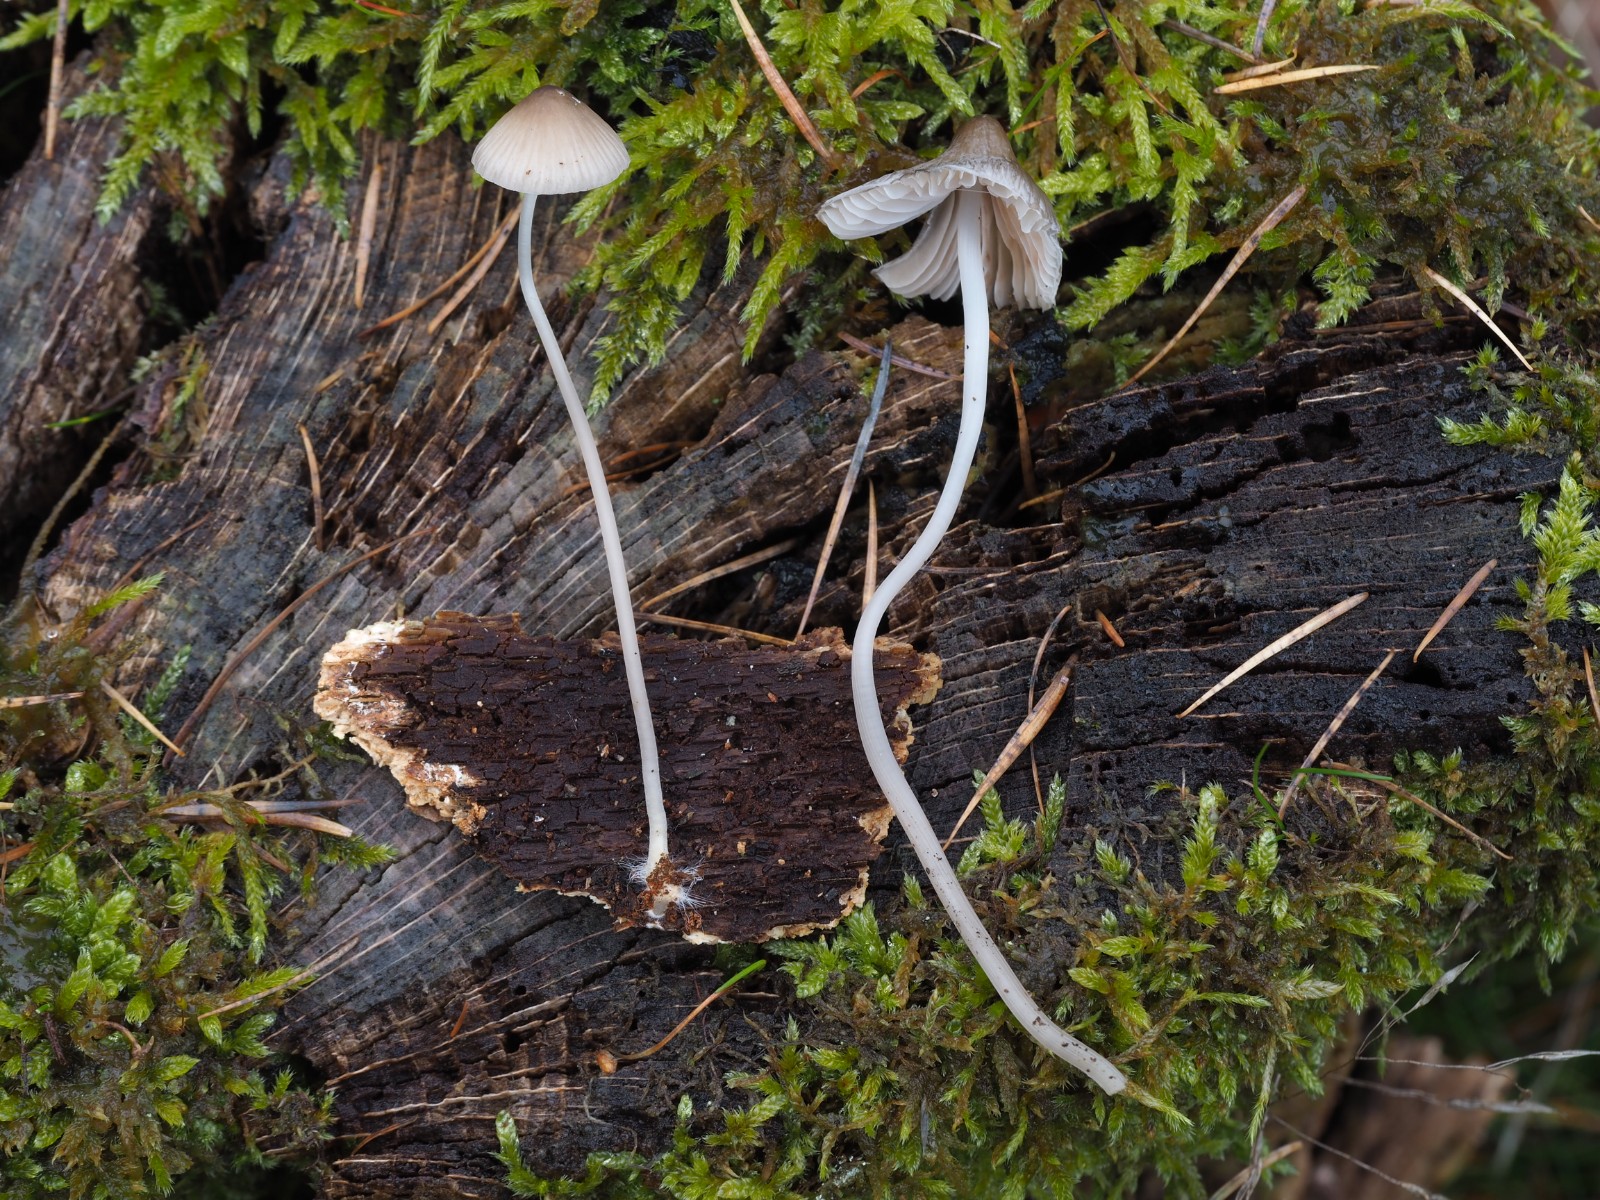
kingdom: Fungi
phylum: Basidiomycota
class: Agaricomycetes
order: Agaricales
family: Mycenaceae
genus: Mycena
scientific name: Mycena polygramma
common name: mangestribet huesvamp
